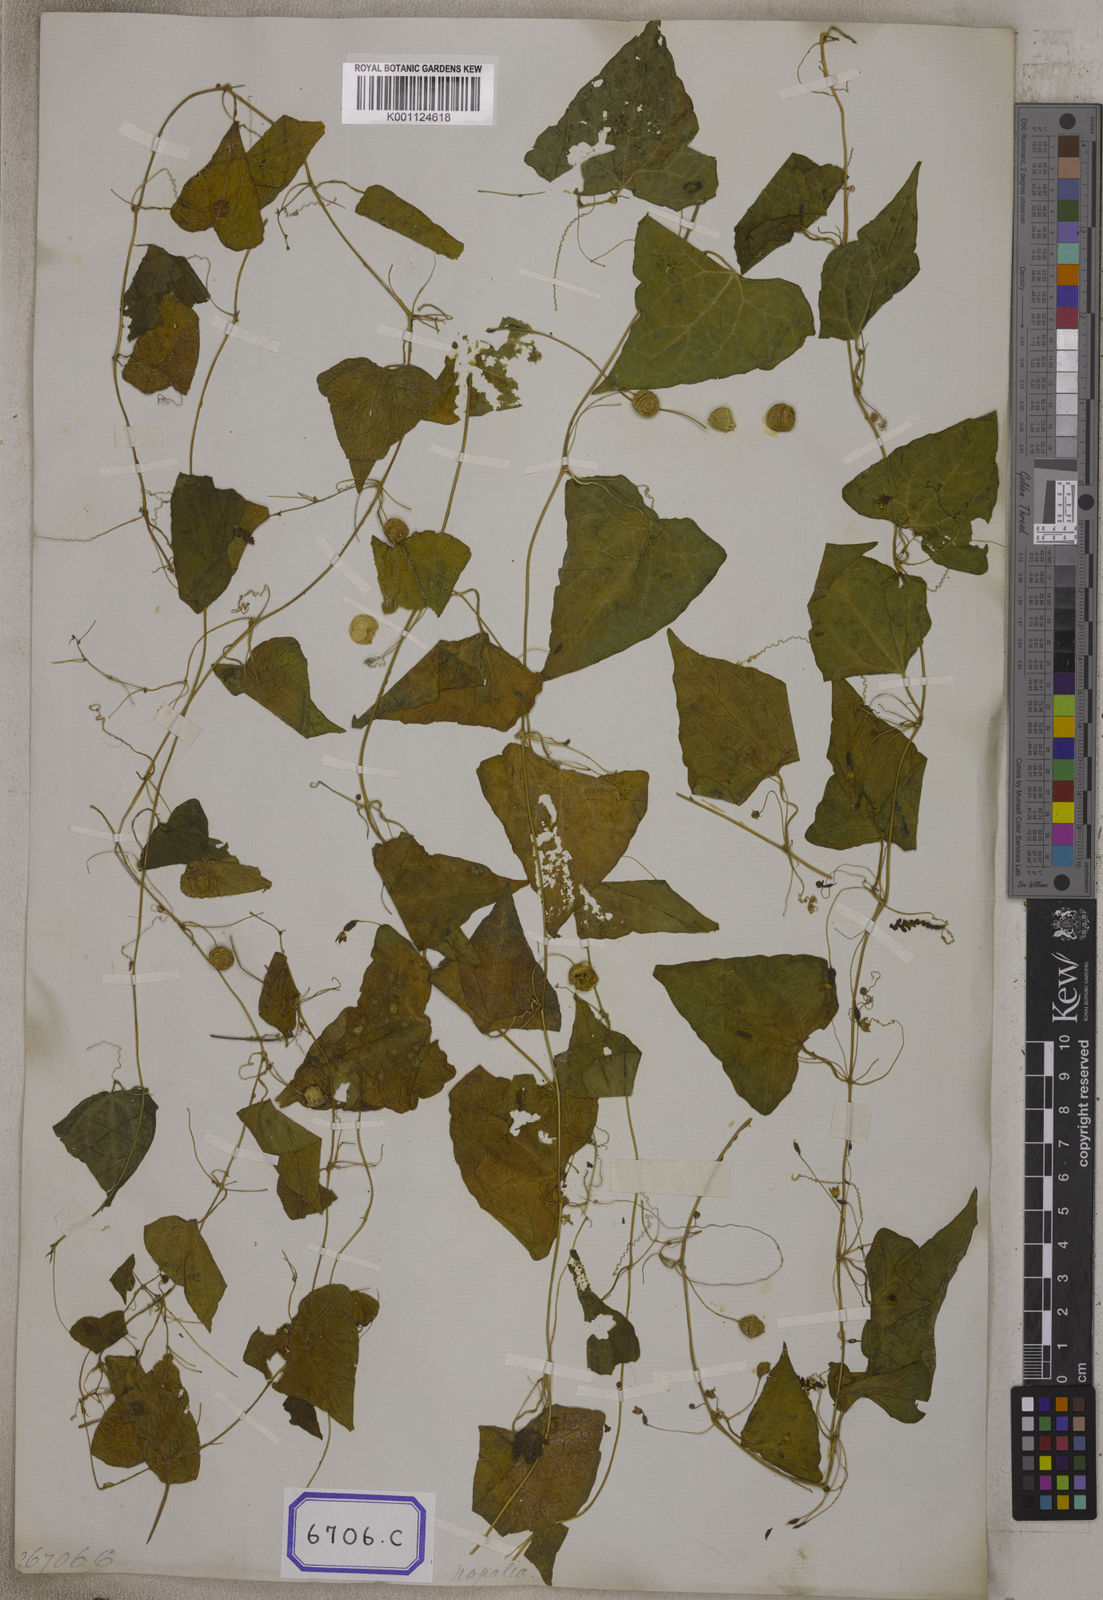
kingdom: Plantae
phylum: Tracheophyta
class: Magnoliopsida
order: Cucurbitales
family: Cucurbitaceae
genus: Zehneria
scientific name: Zehneria odorata
